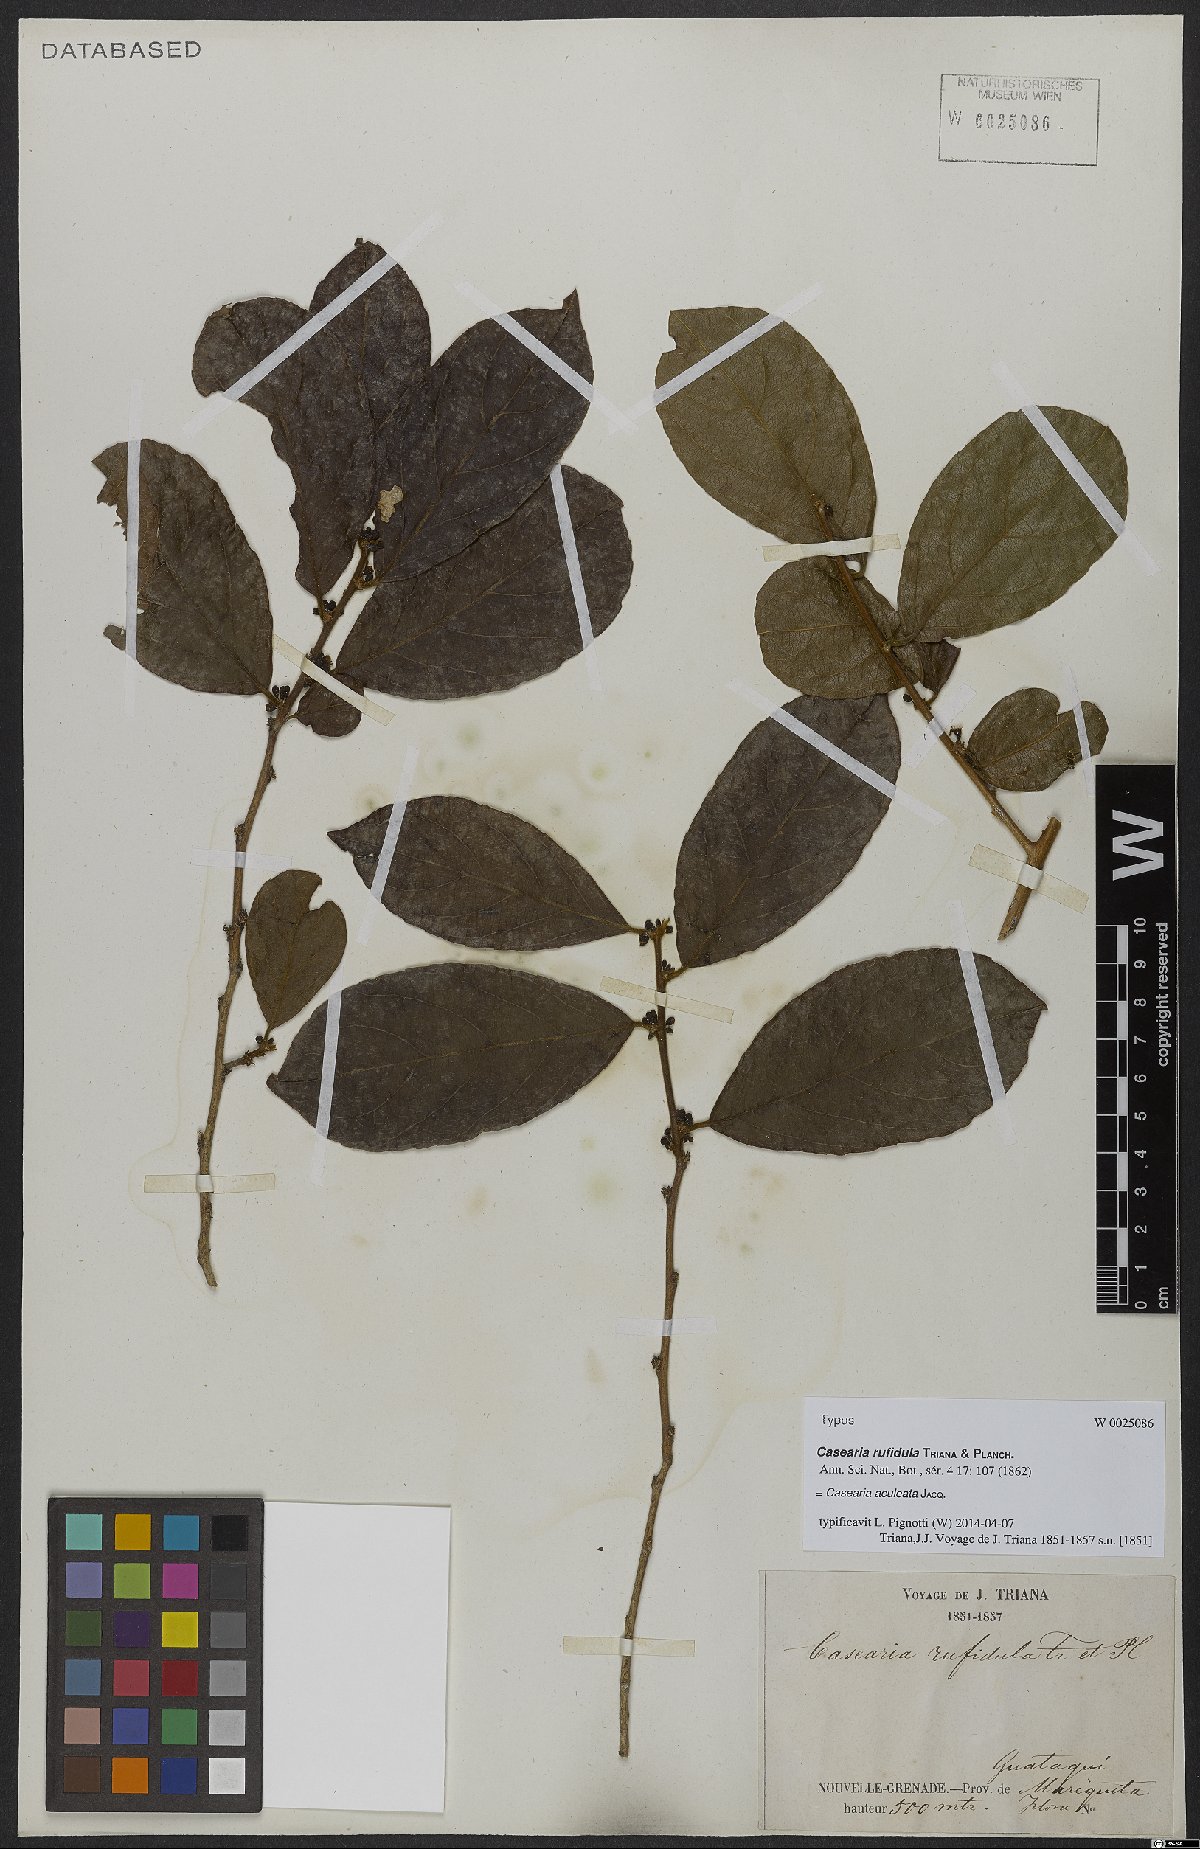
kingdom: Plantae
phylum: Tracheophyta
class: Magnoliopsida
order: Malpighiales
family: Salicaceae
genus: Casearia
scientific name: Casearia aculeata
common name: Cockspur
